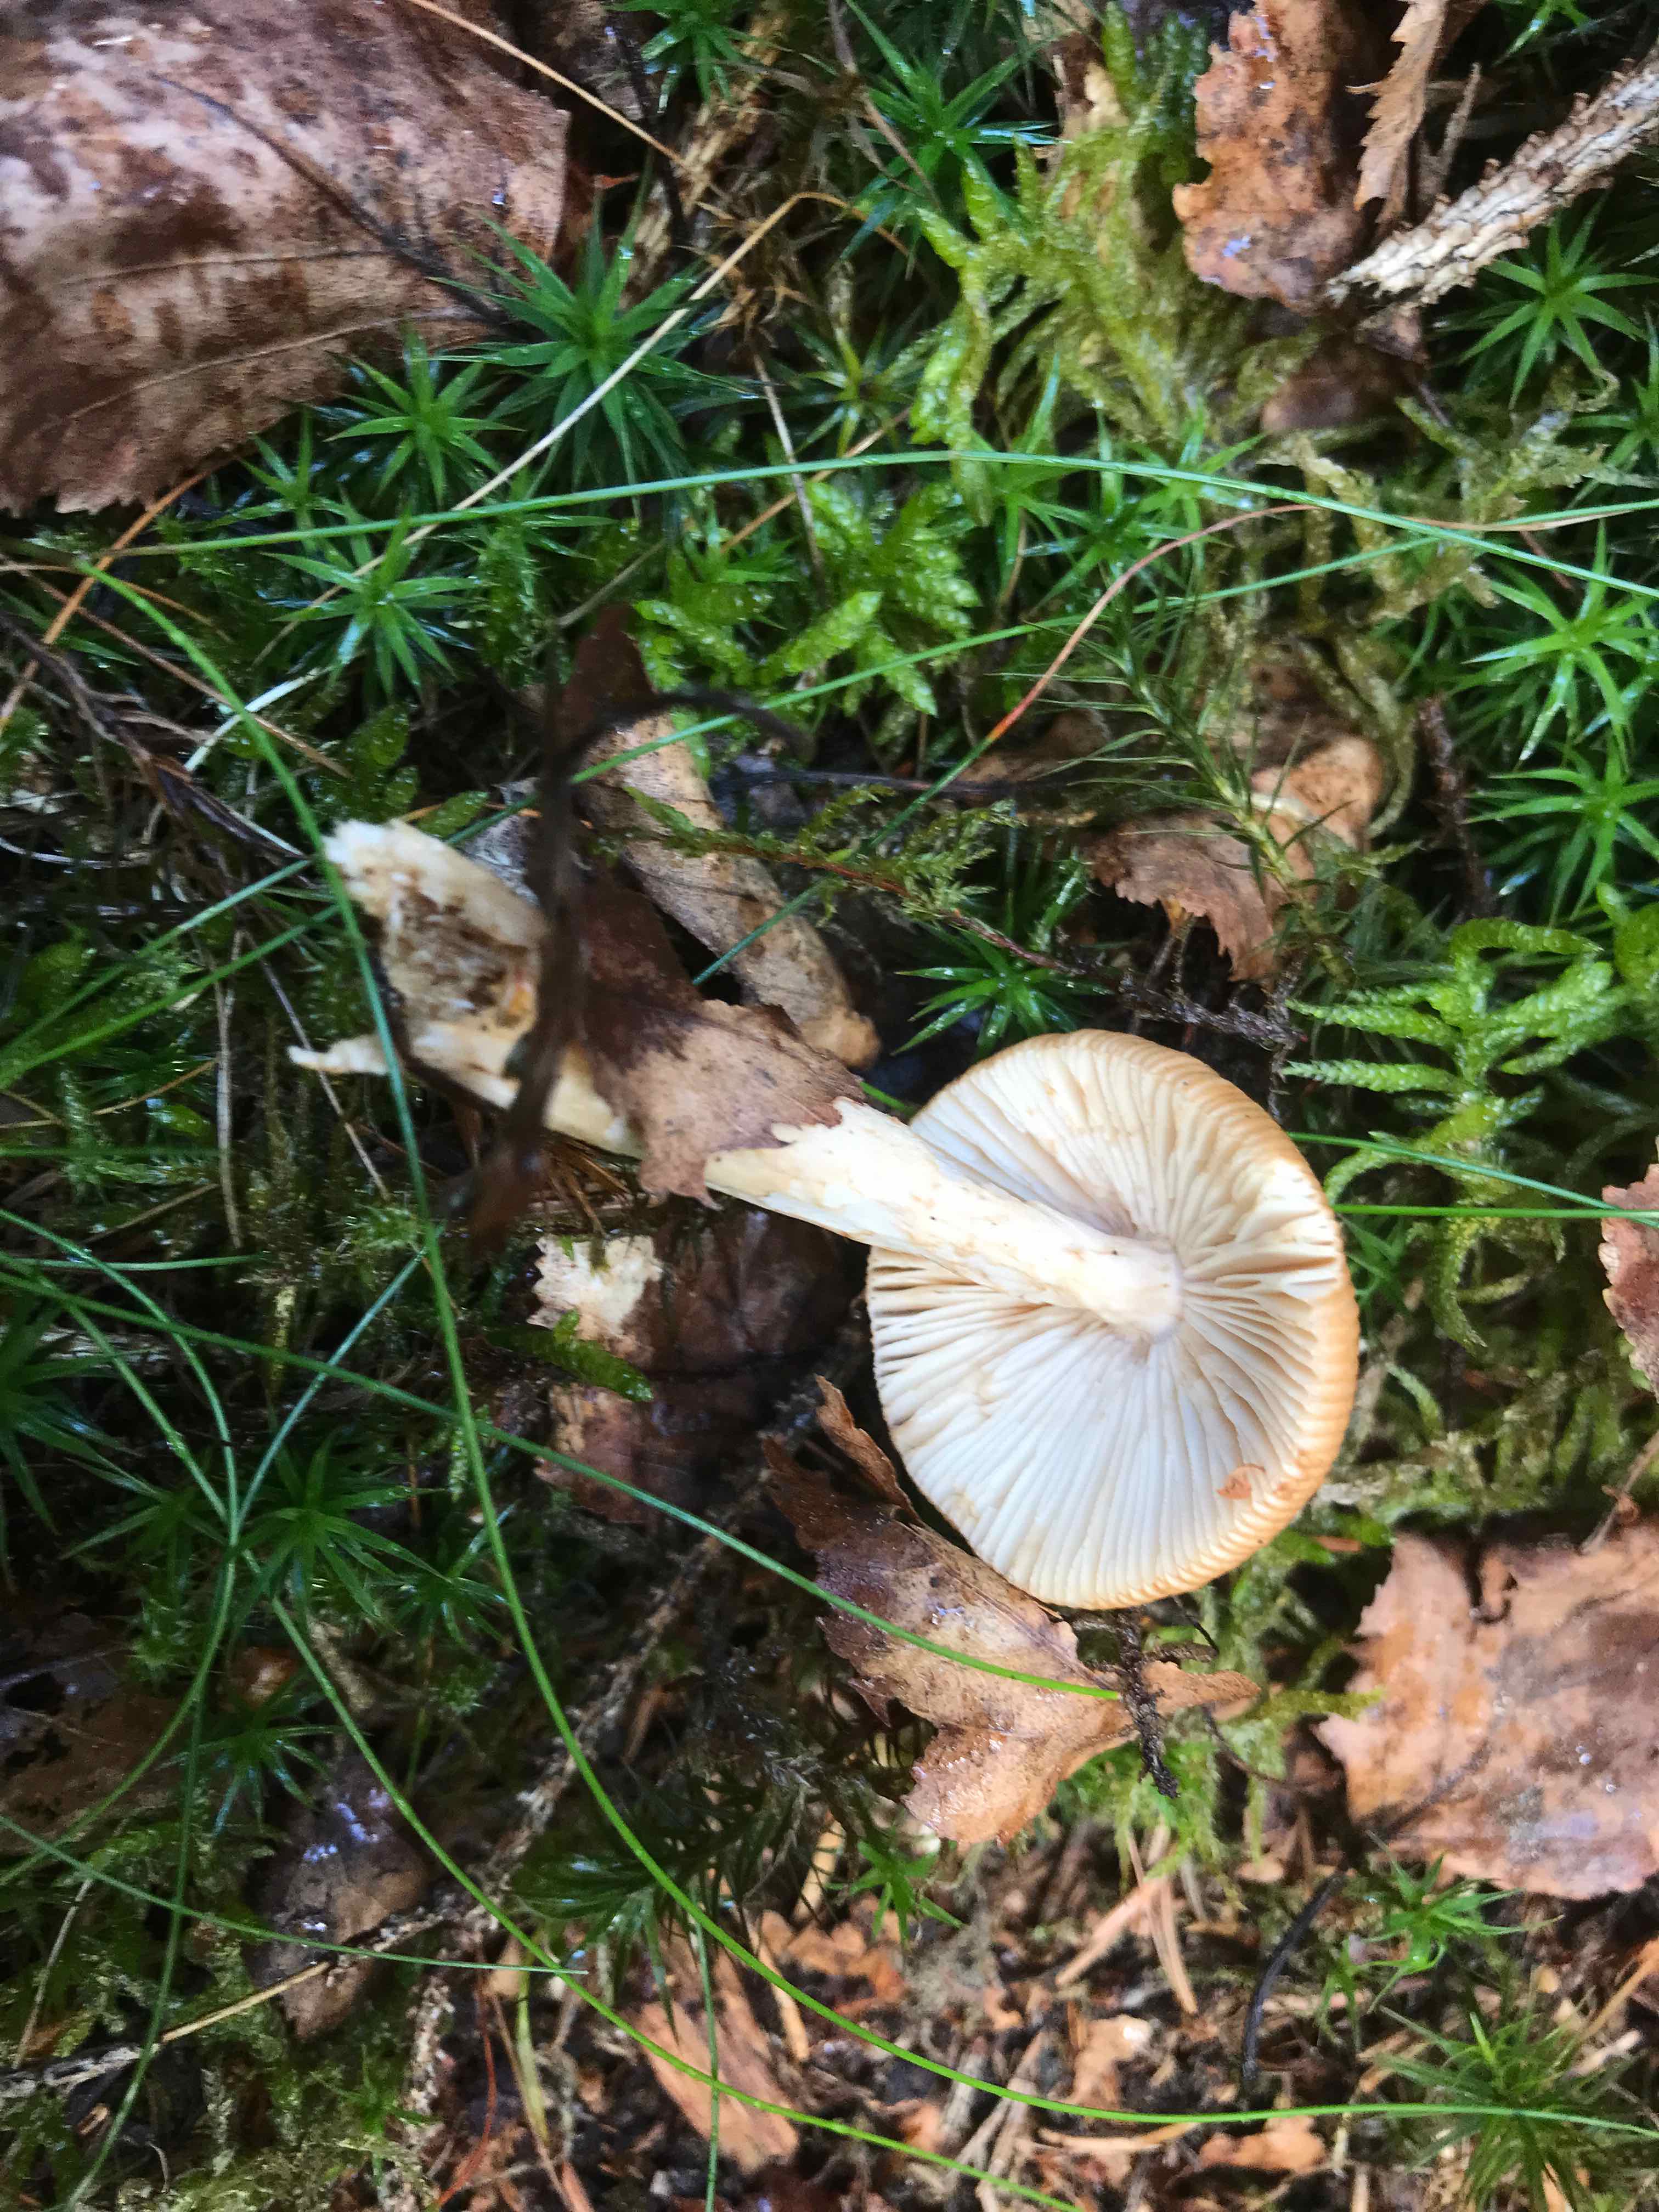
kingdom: Fungi
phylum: Basidiomycota
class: Agaricomycetes
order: Agaricales
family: Amanitaceae
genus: Amanita
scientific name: Amanita fulva
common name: brun kam-fluesvamp
